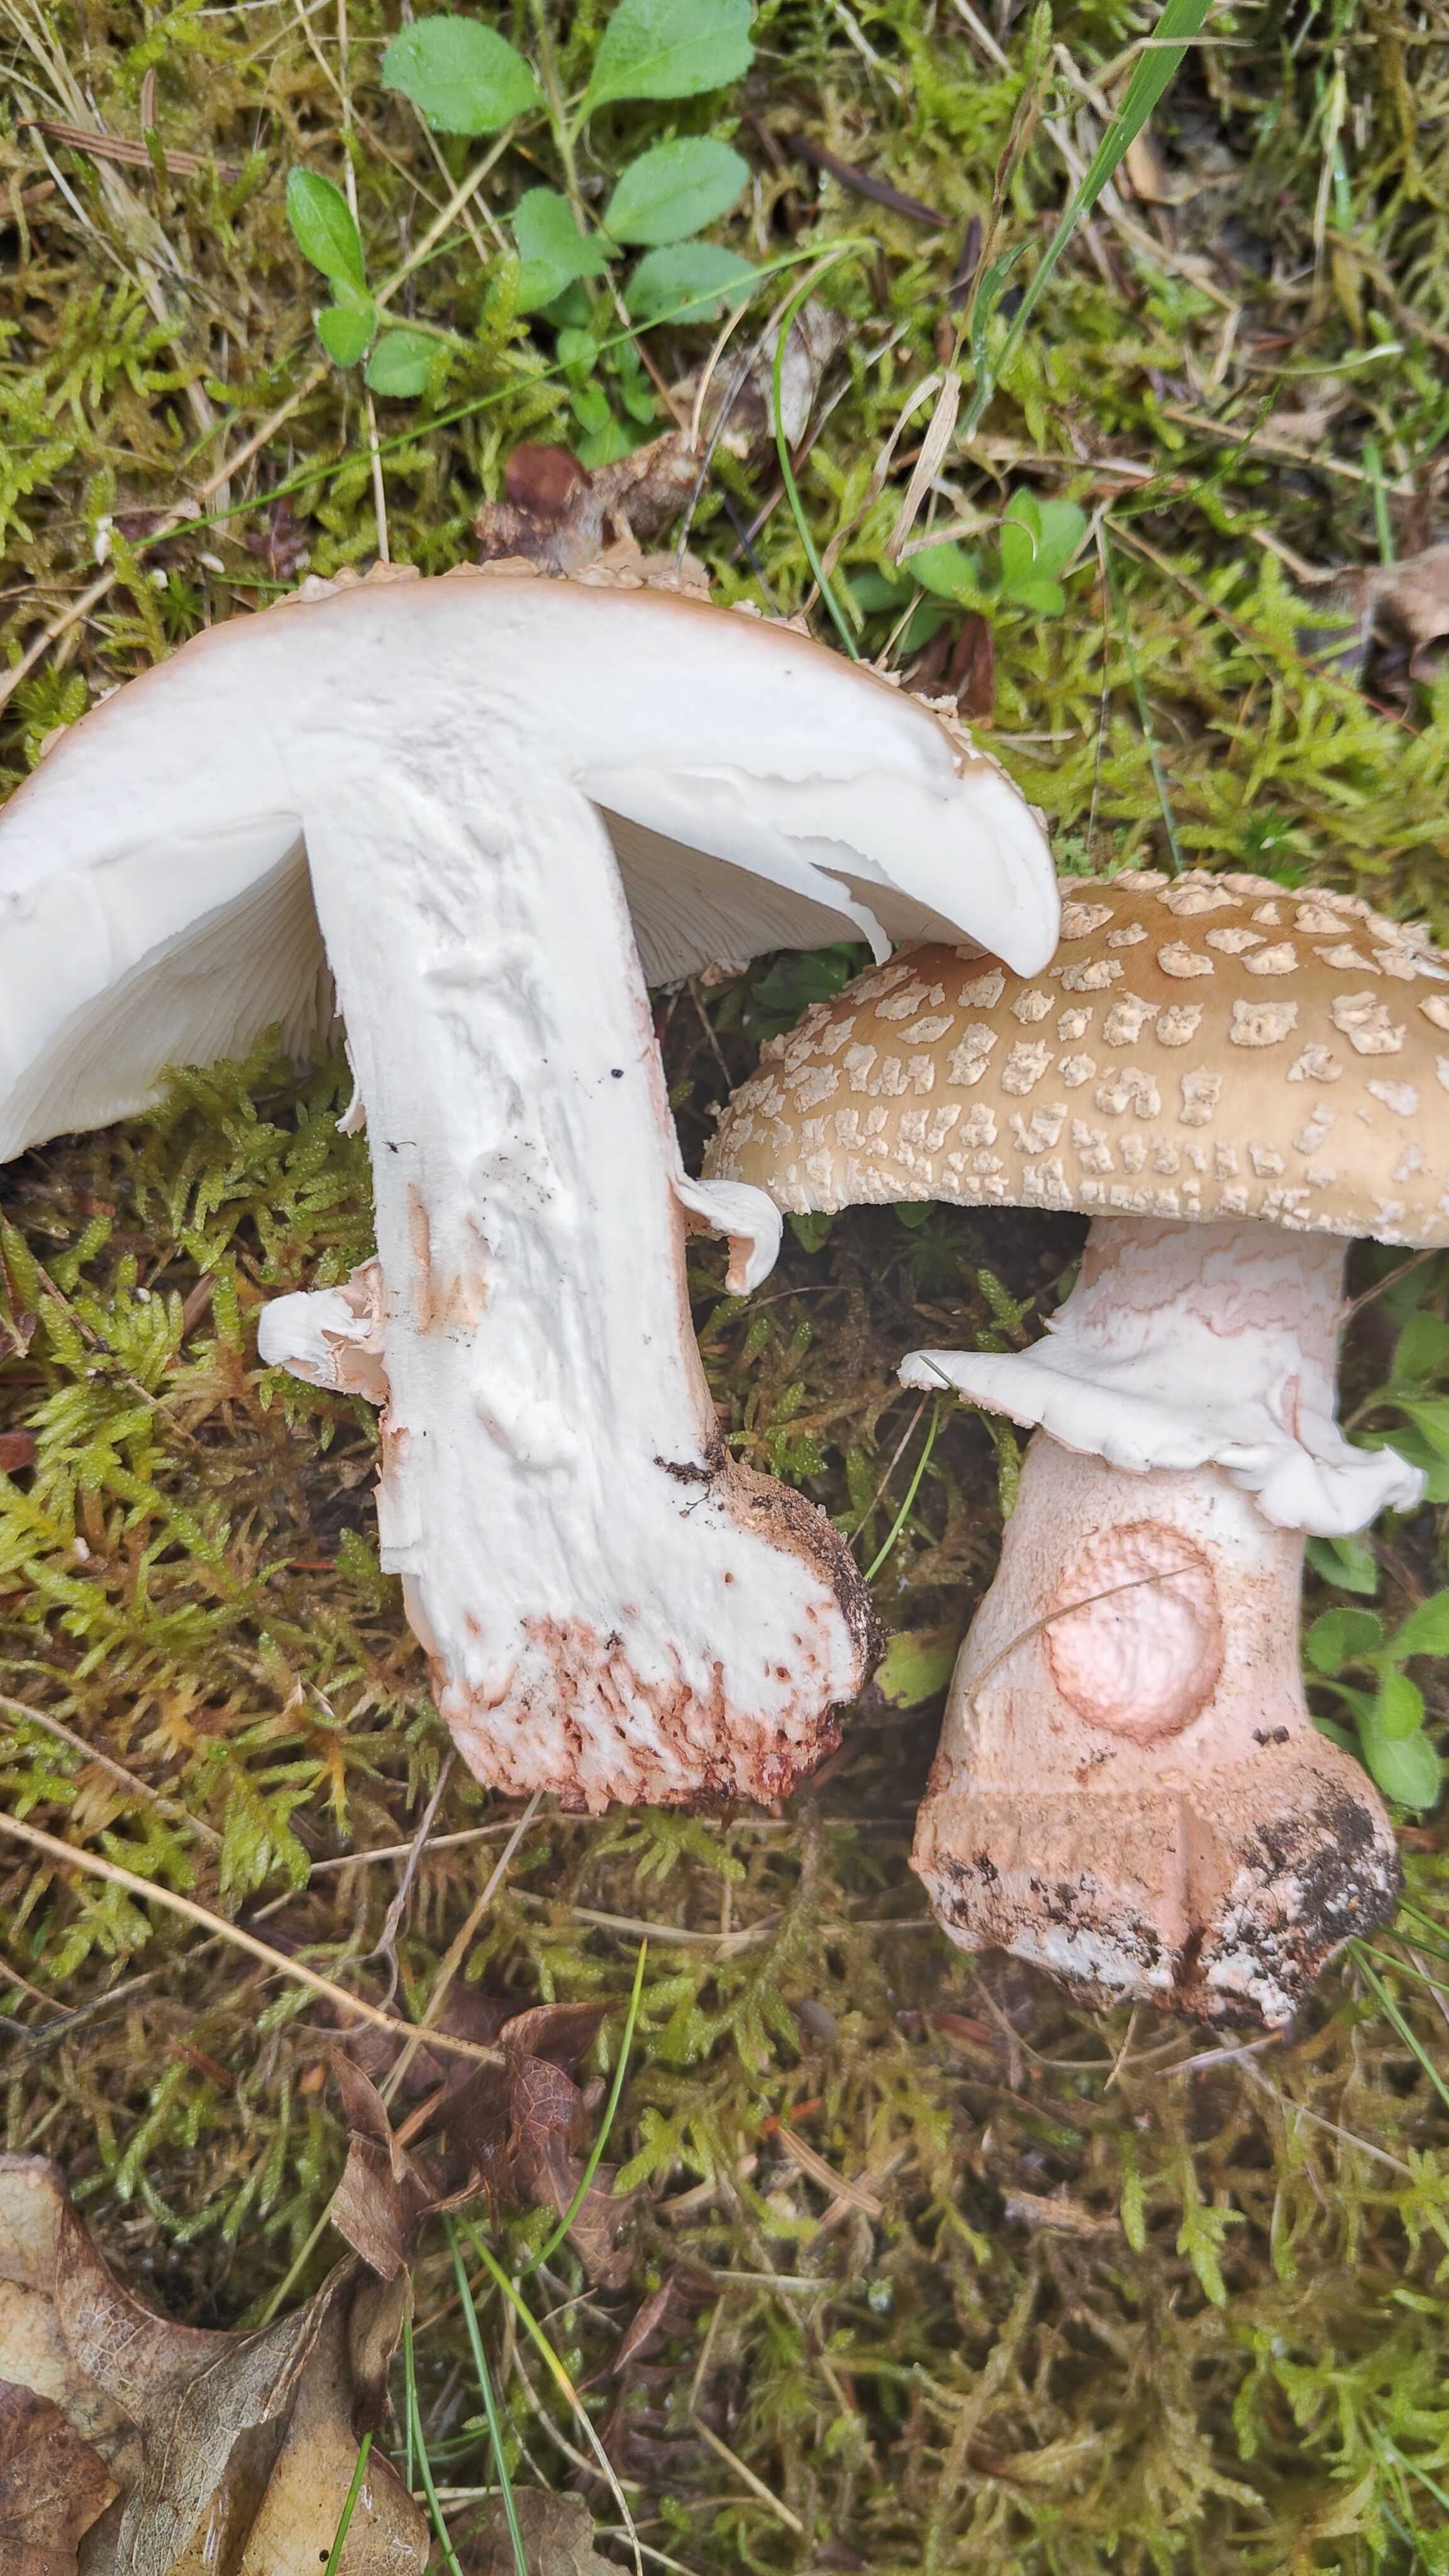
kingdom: Fungi
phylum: Basidiomycota
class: Agaricomycetes
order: Agaricales
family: Amanitaceae
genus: Amanita
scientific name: Amanita rubescens
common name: rødmende fluesvamp
